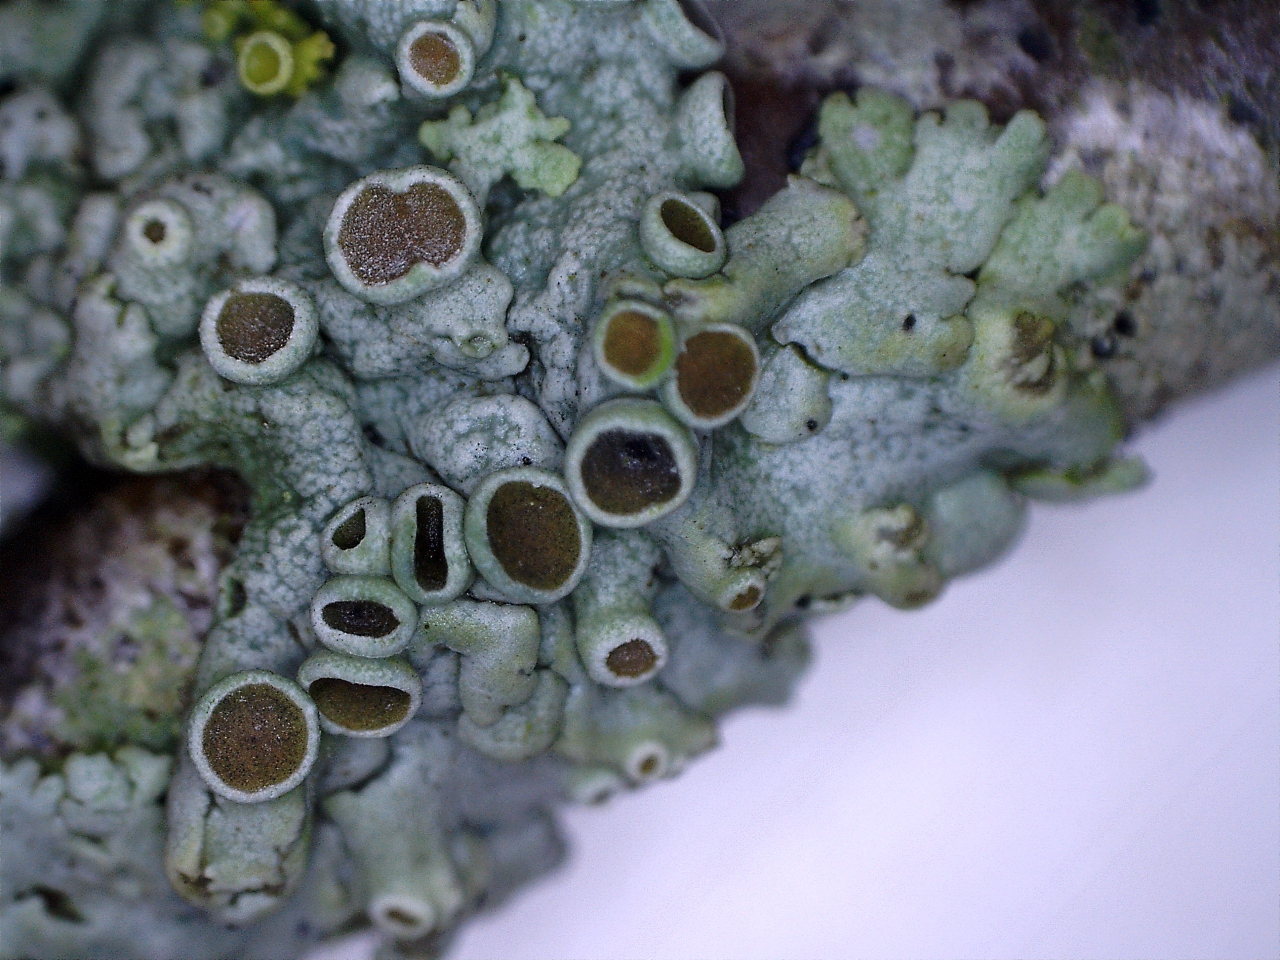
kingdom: Fungi
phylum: Ascomycota
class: Lecanoromycetes
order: Caliciales
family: Physciaceae
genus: Physcia
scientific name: Physcia aipolia
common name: hvidprikket rosetlav
